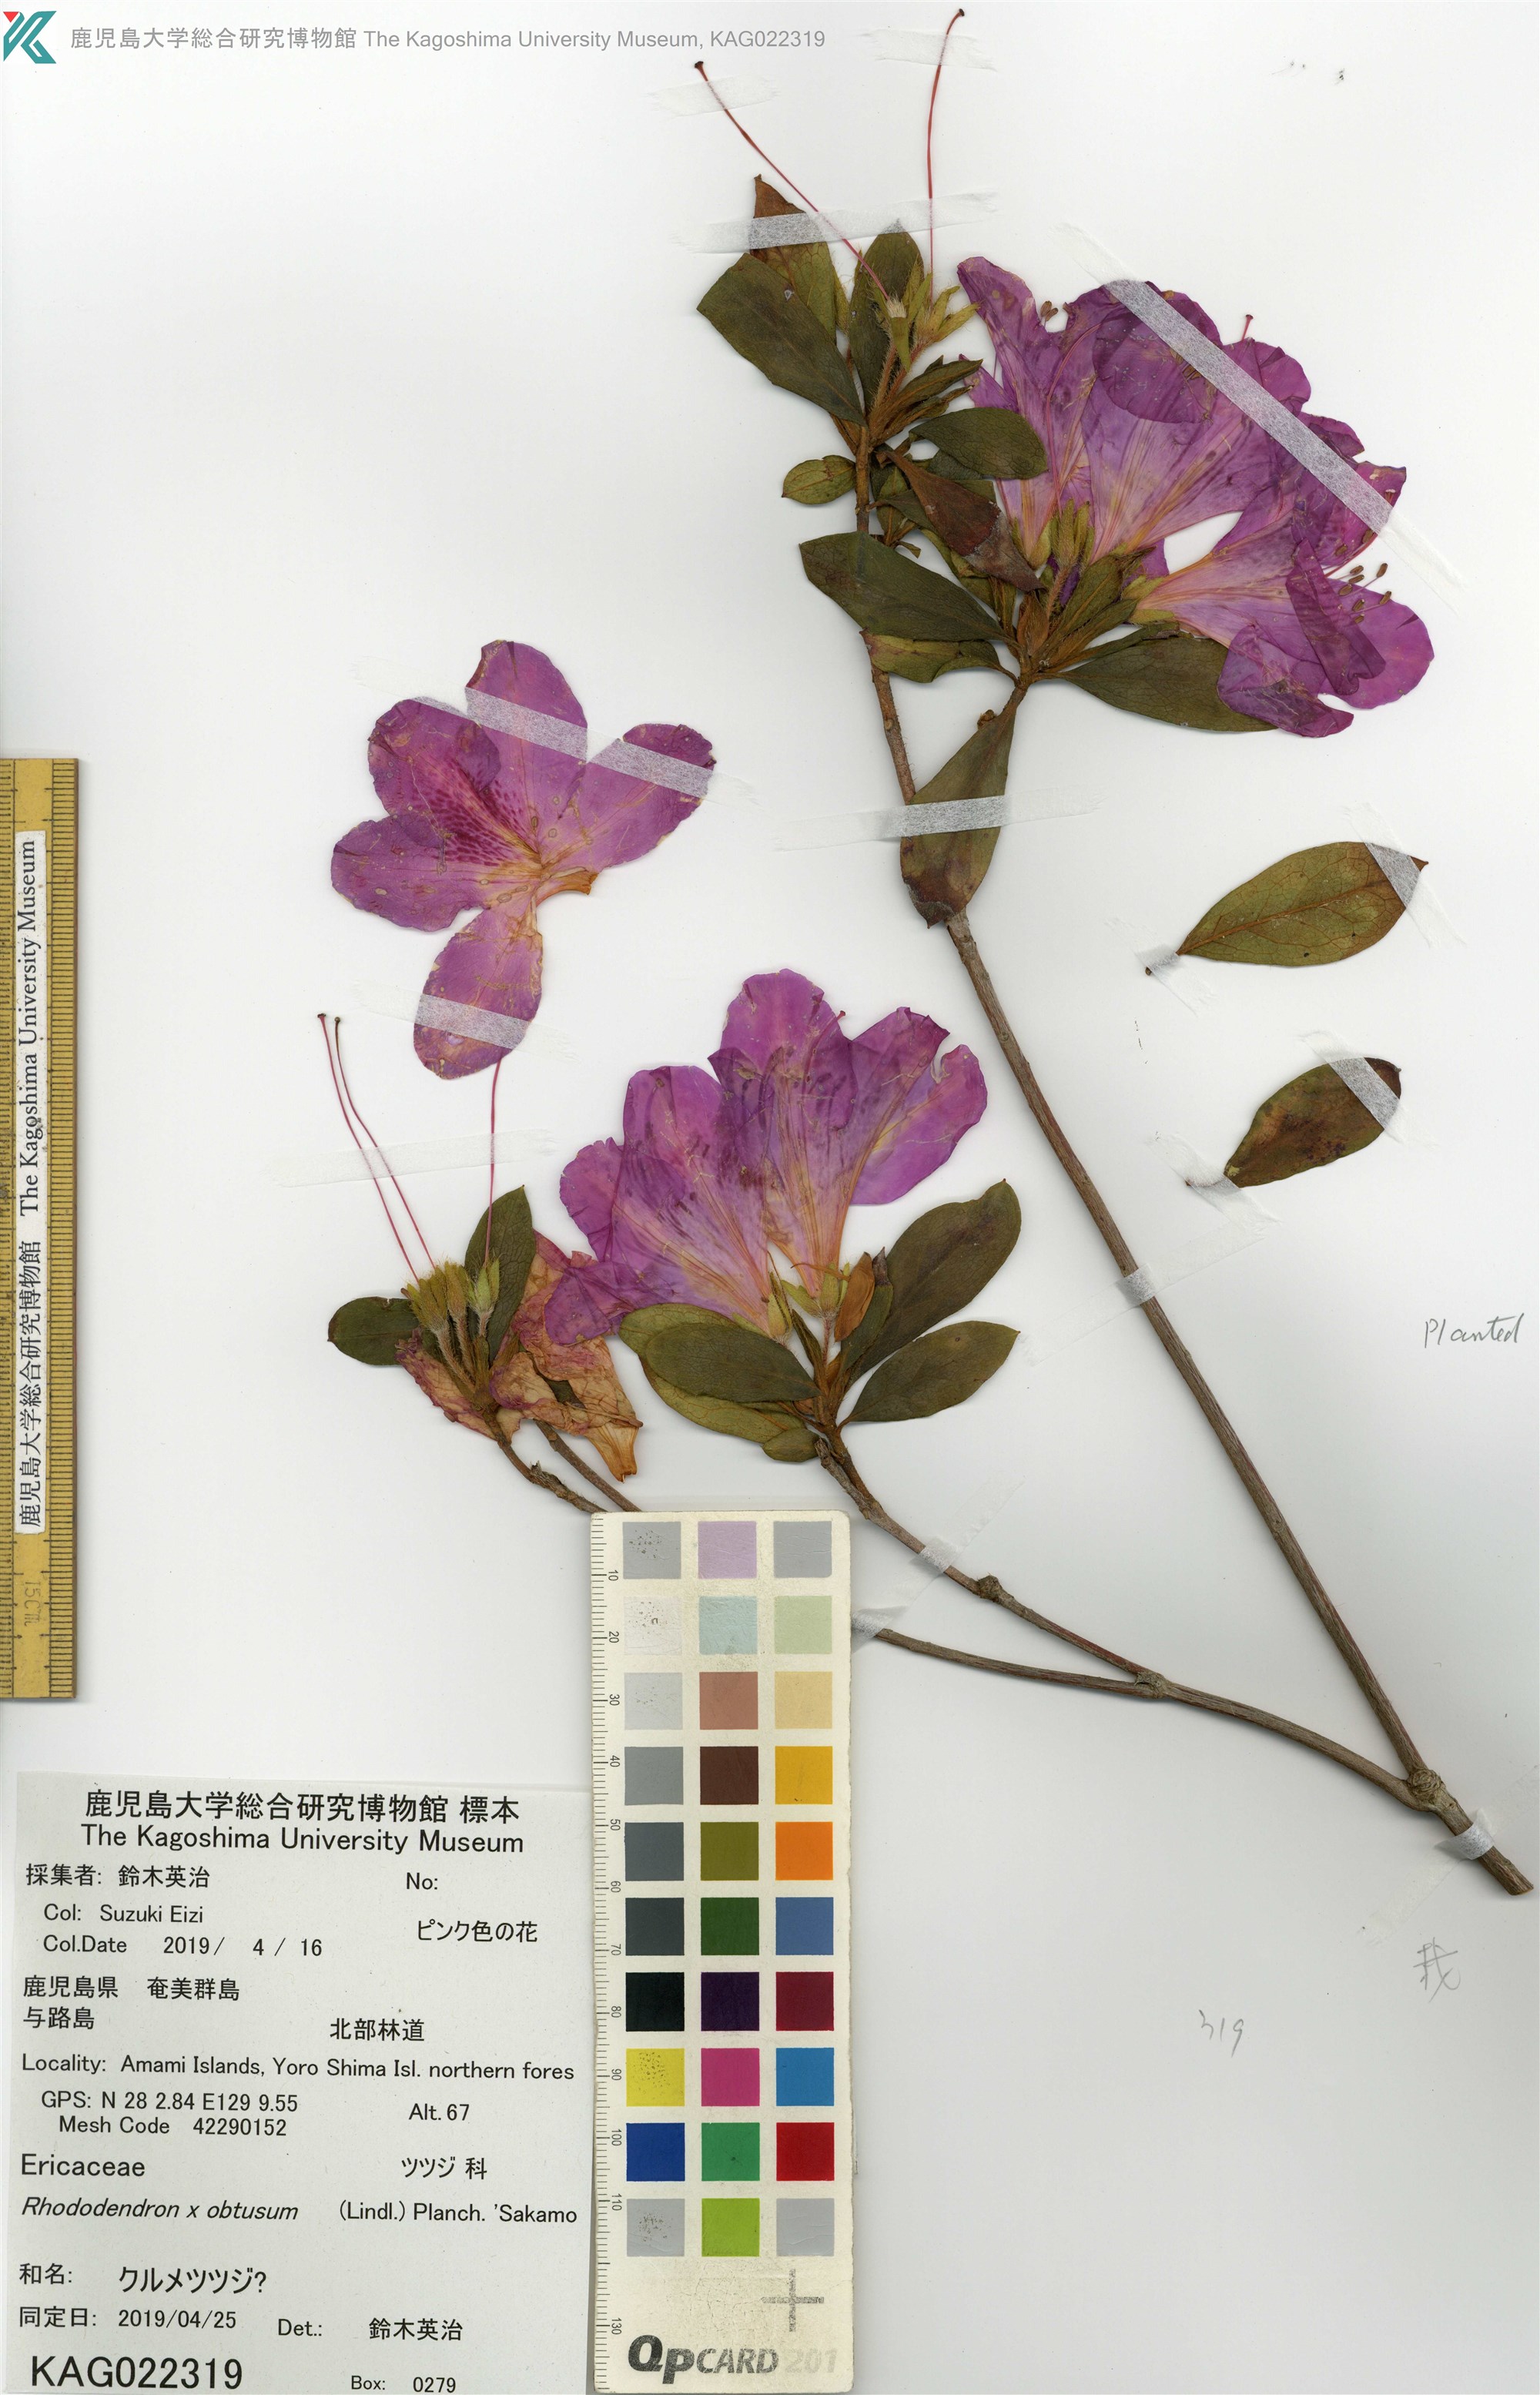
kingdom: Plantae
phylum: Tracheophyta
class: Magnoliopsida
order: Ericales
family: Ericaceae
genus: Rhododendron
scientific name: Rhododendron
